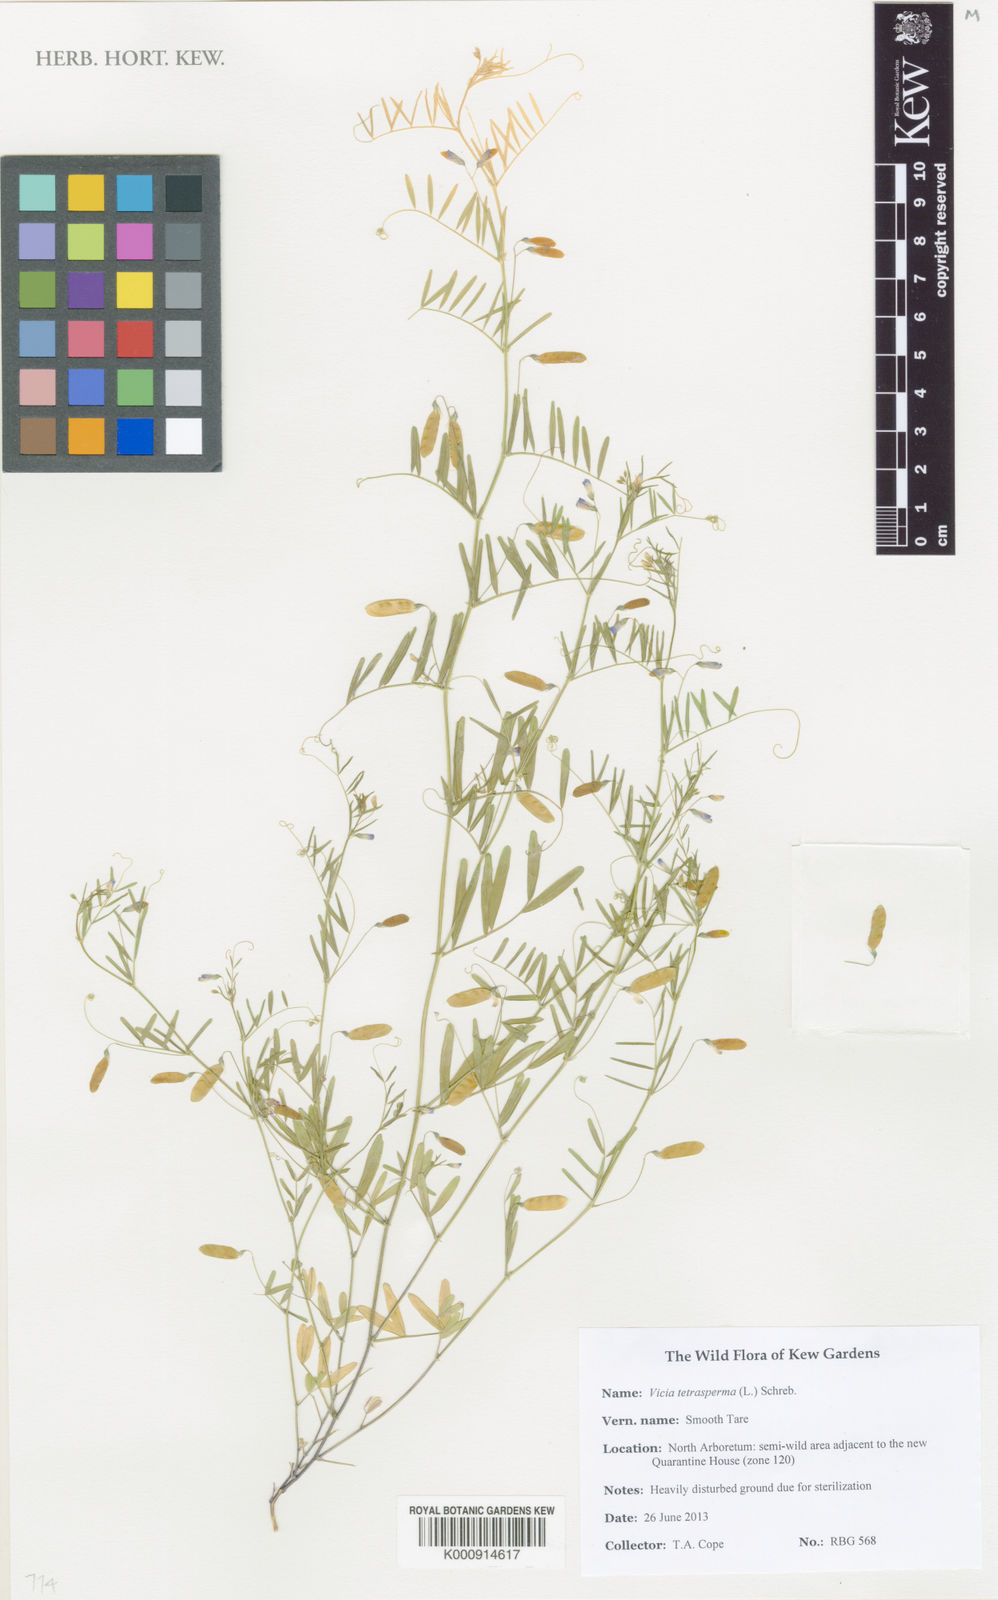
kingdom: Plantae
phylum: Tracheophyta
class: Magnoliopsida
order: Fabales
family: Fabaceae
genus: Vicia
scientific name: Vicia tetrasperma
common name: Smooth tare
